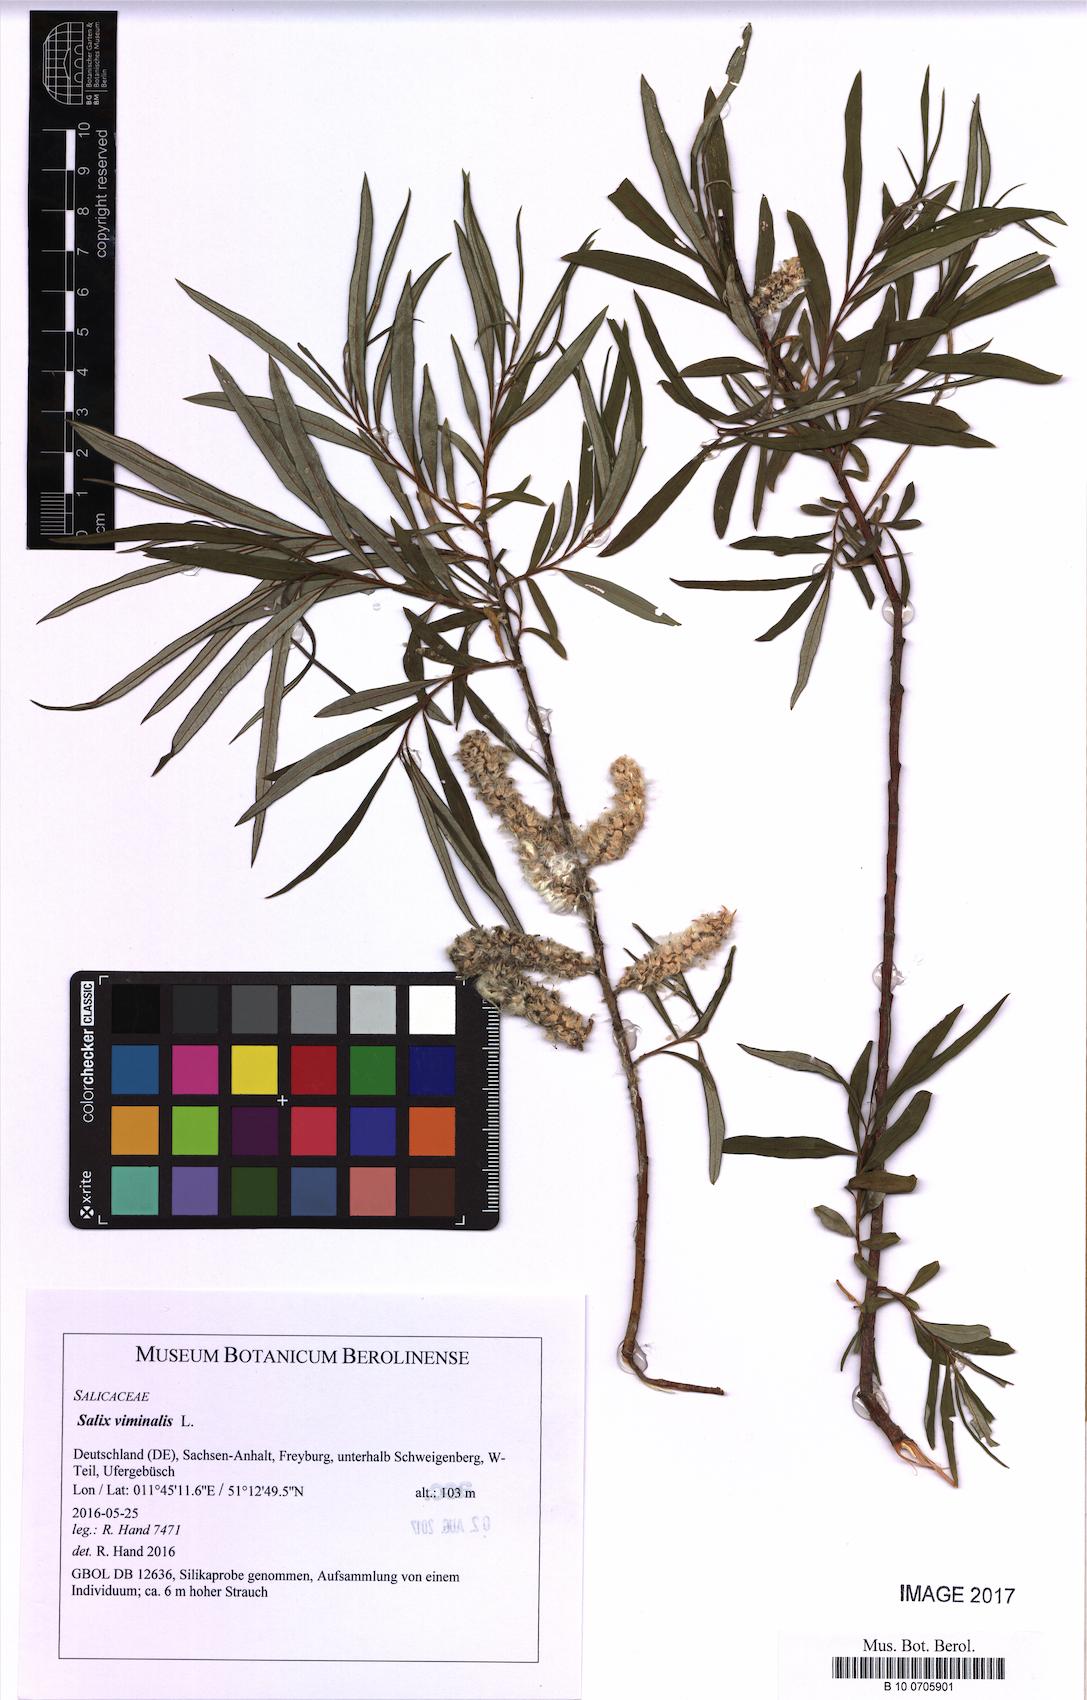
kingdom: Plantae
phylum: Tracheophyta
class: Magnoliopsida
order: Malpighiales
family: Salicaceae
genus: Salix
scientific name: Salix viminalis
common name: Osier
